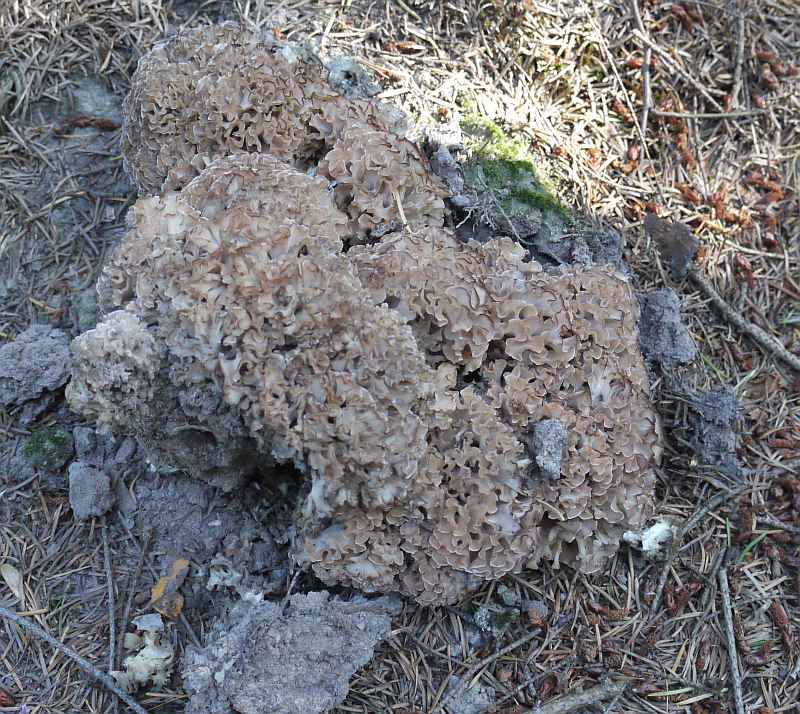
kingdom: Fungi
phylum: Basidiomycota
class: Agaricomycetes
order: Polyporales
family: Sparassidaceae
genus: Sparassis
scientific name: Sparassis crispa
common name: kruset blomkålssvamp
